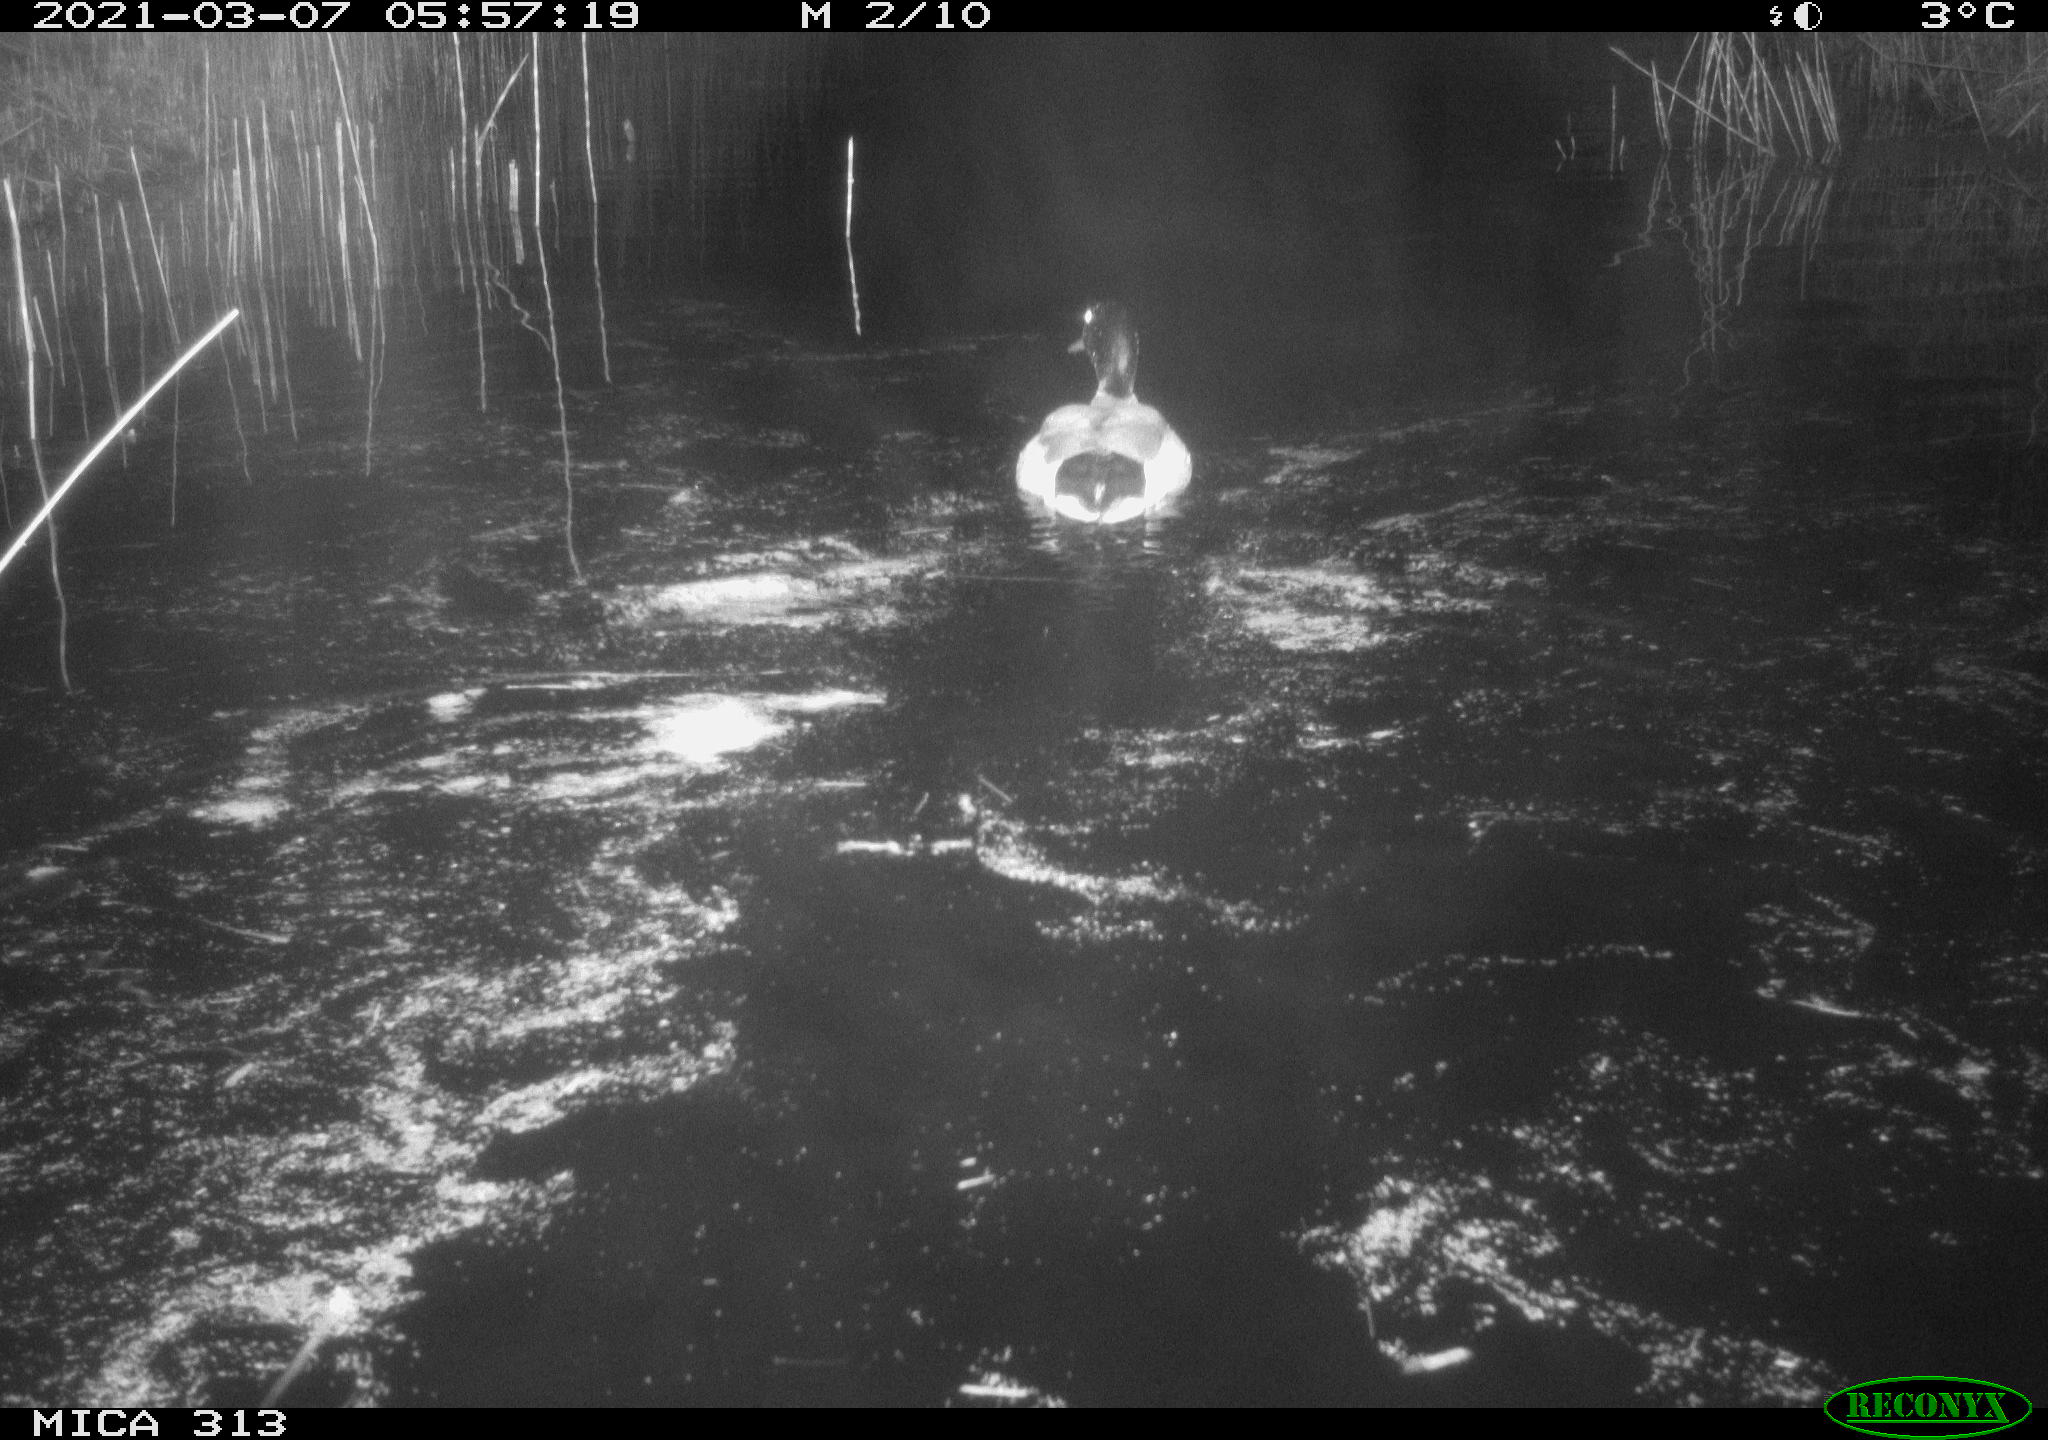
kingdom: Animalia
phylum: Chordata
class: Aves
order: Anseriformes
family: Anatidae
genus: Anas
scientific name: Anas platyrhynchos
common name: Mallard
